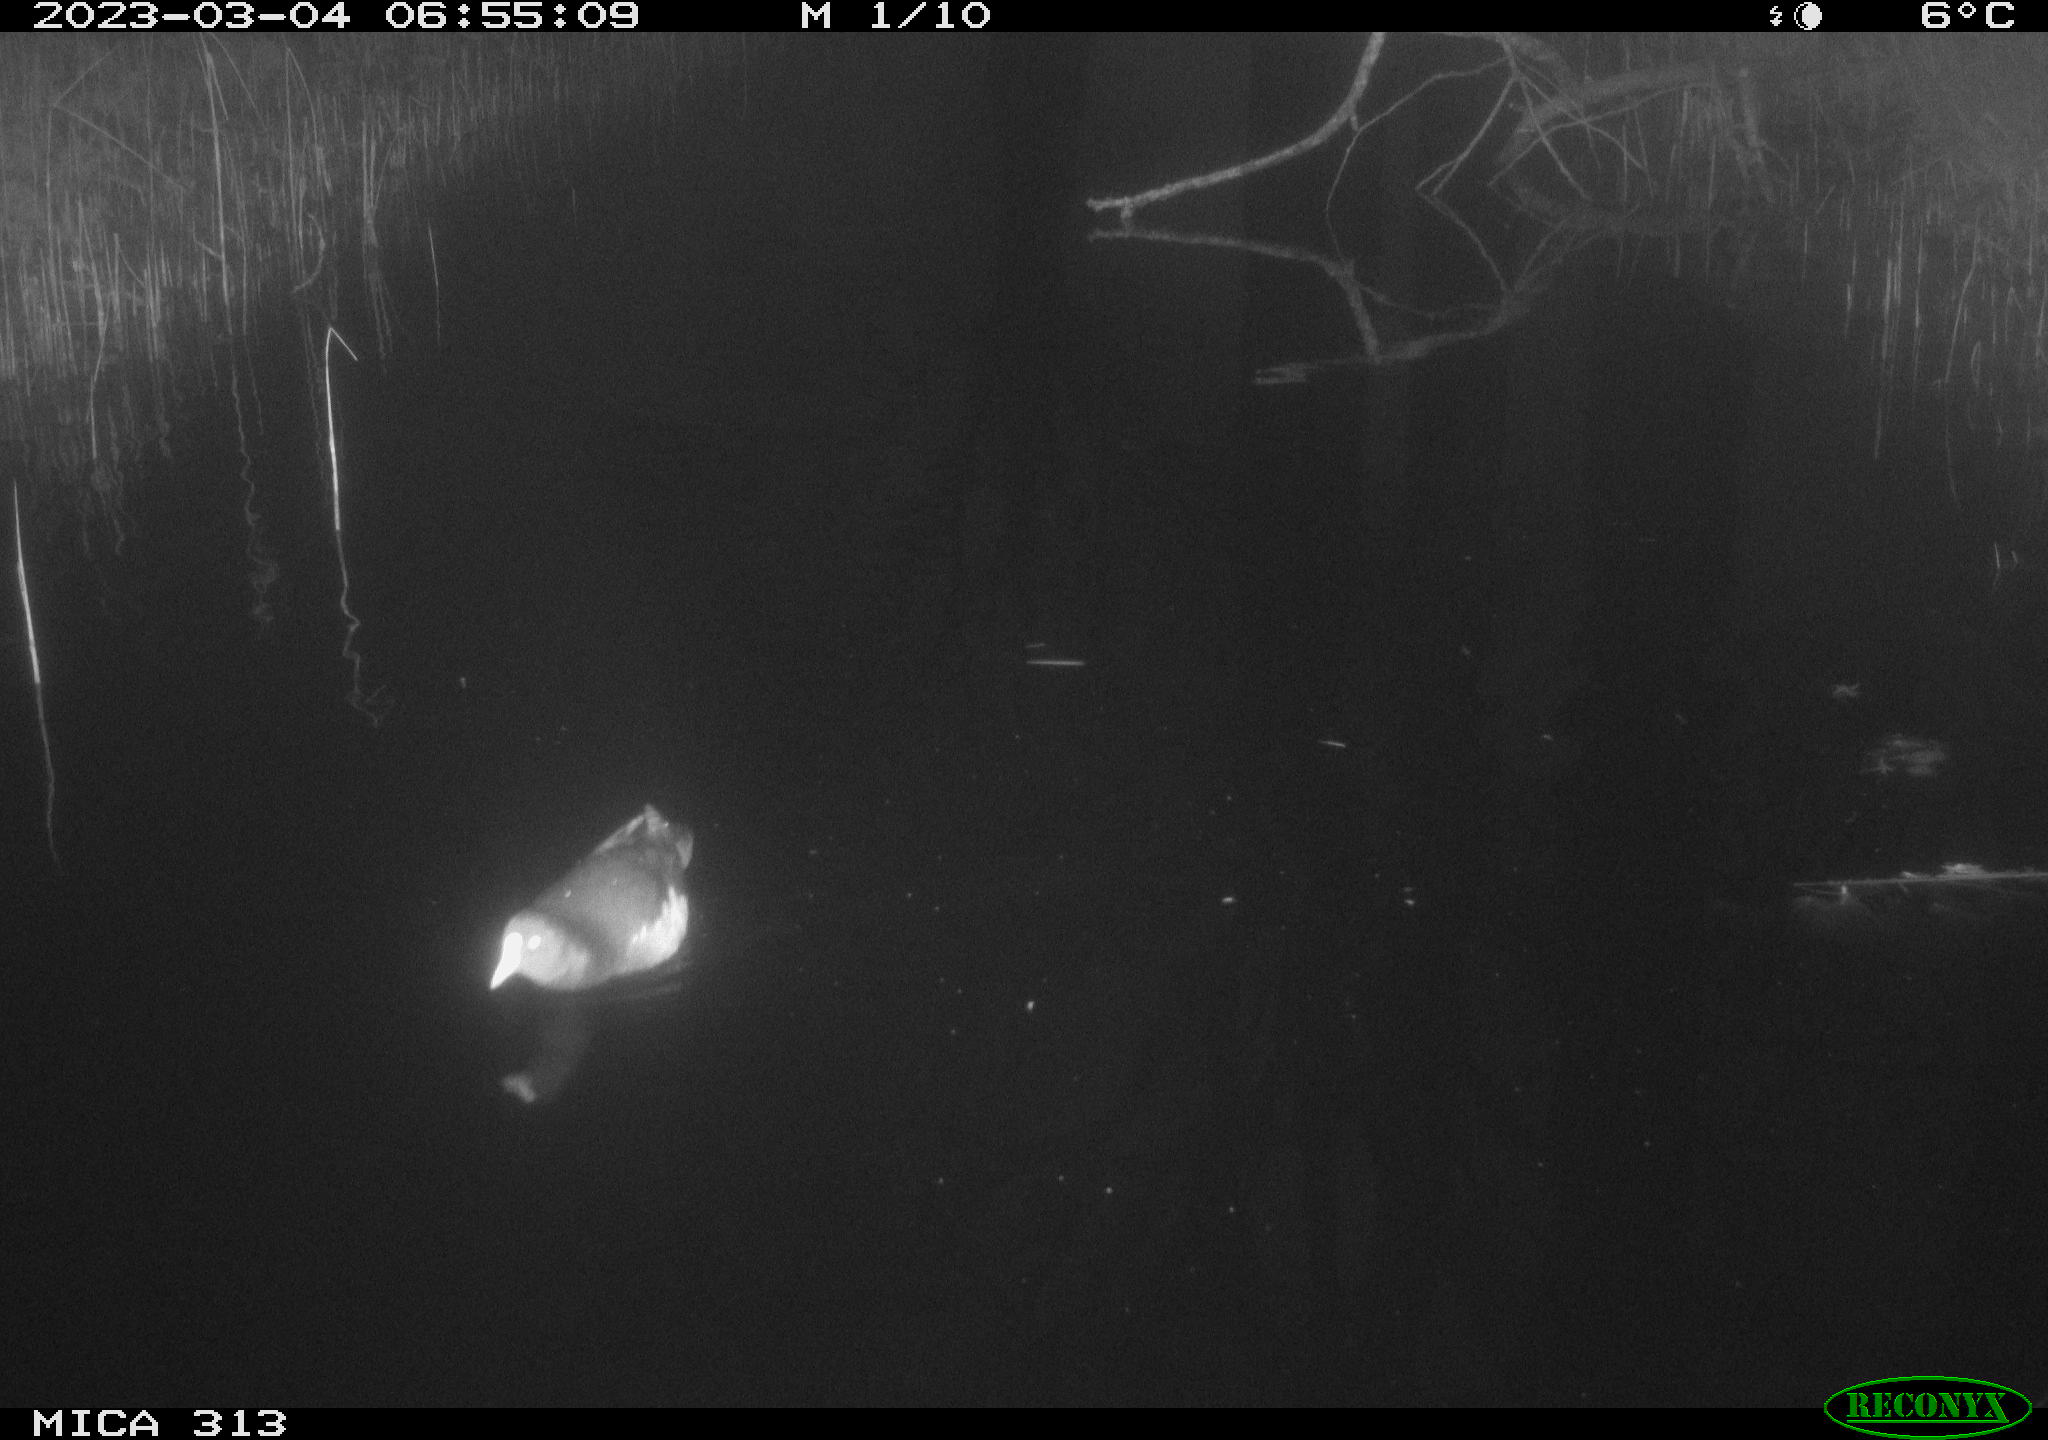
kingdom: Animalia
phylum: Chordata
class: Aves
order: Gruiformes
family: Rallidae
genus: Gallinula
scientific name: Gallinula chloropus
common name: Common moorhen
